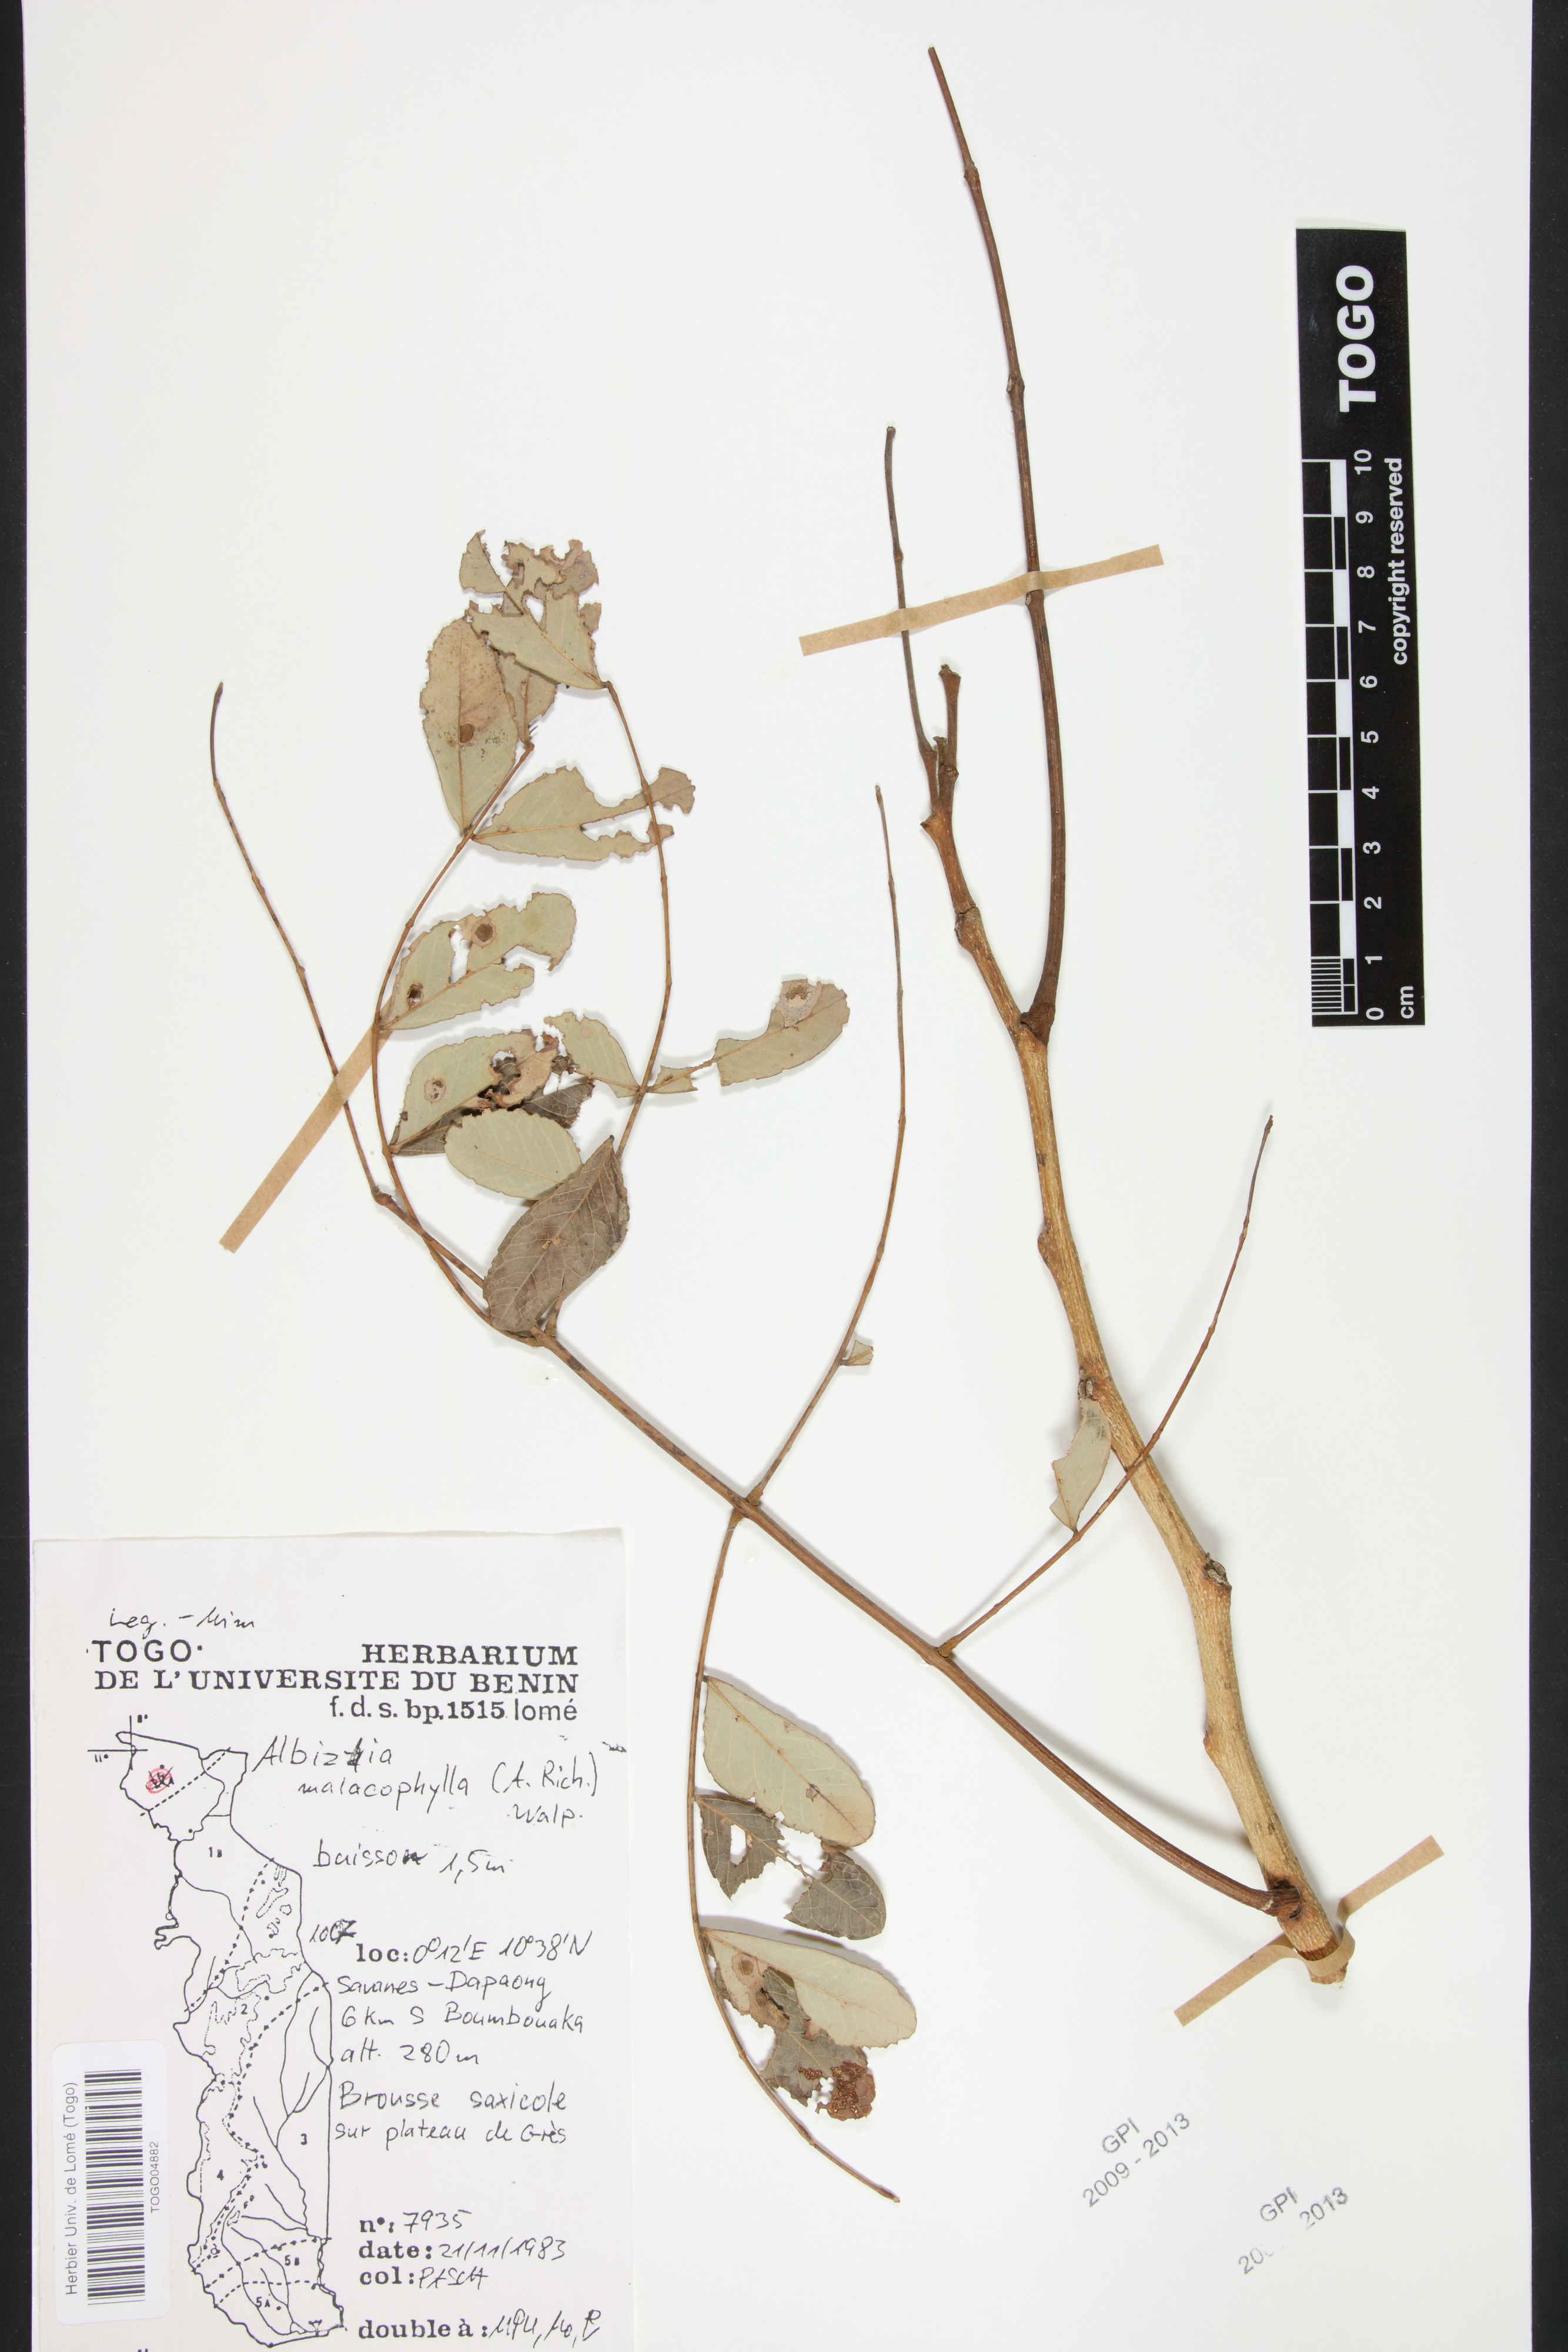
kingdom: Plantae
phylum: Tracheophyta
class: Magnoliopsida
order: Fabales
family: Fabaceae
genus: Falcataria
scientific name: Falcataria falcata
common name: Moluccan albizia
